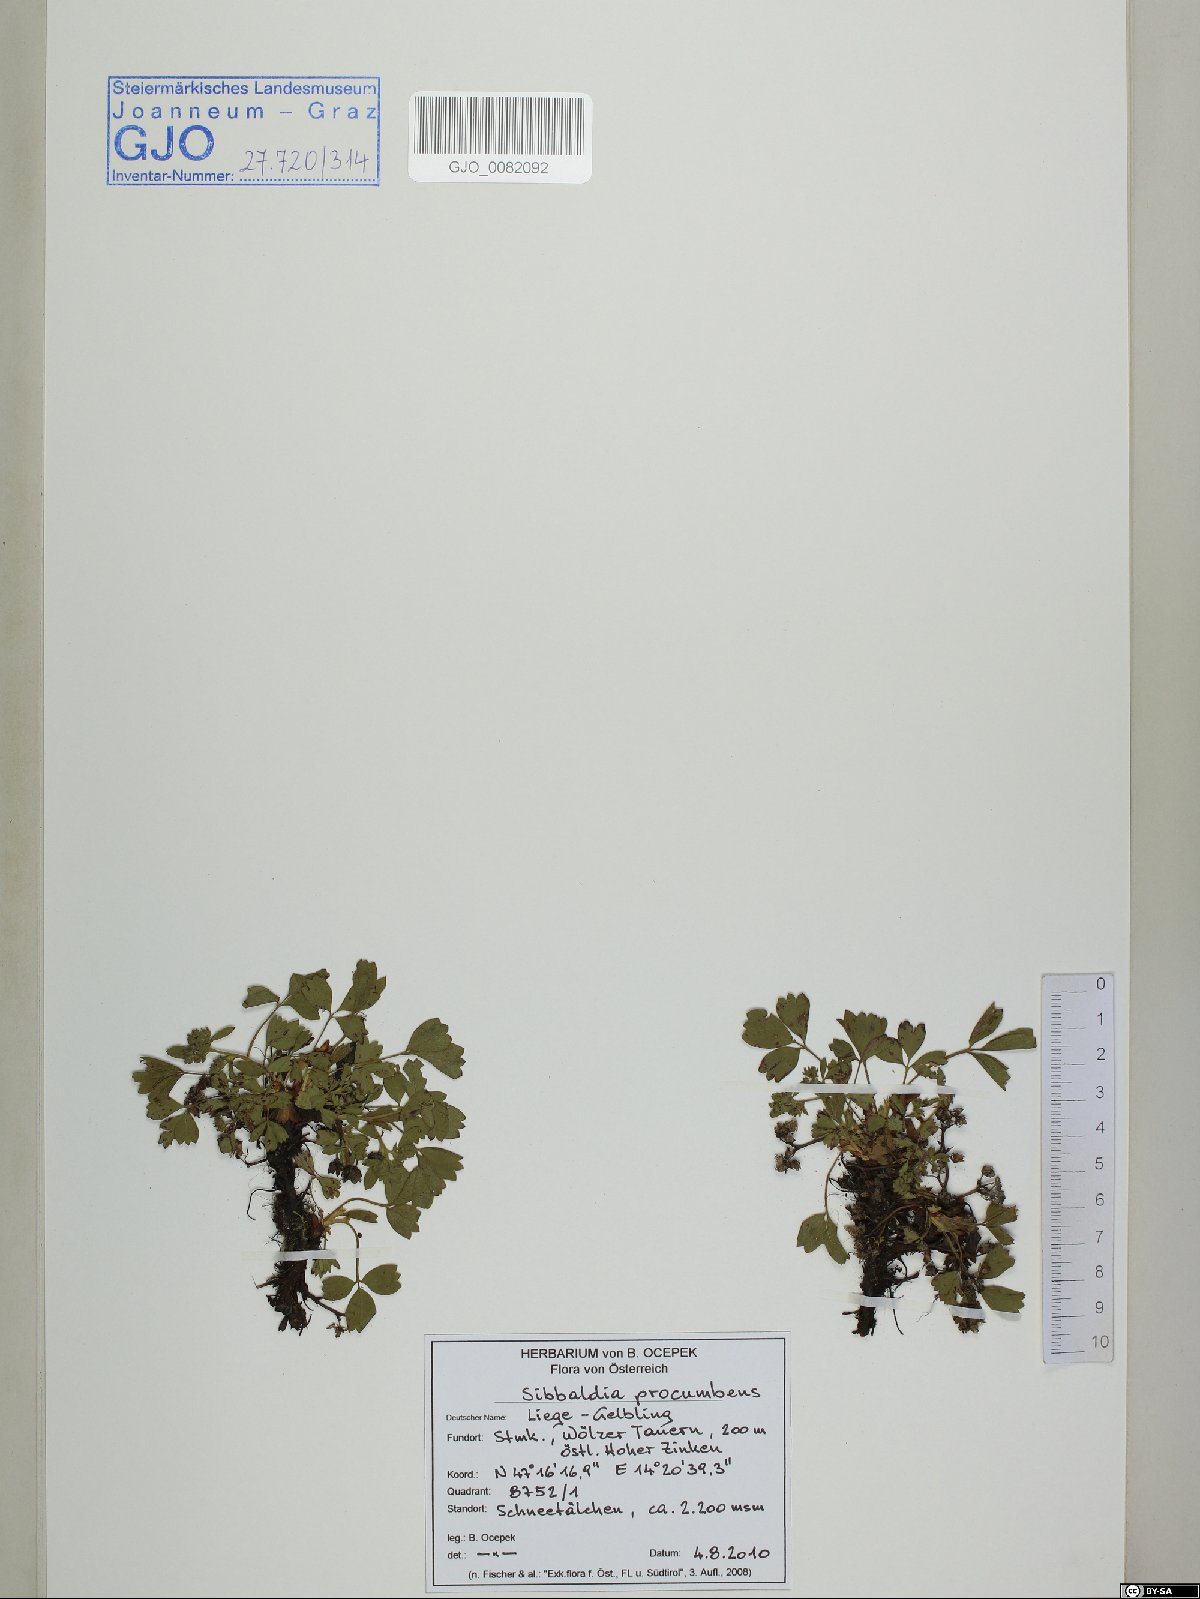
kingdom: Plantae
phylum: Tracheophyta
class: Magnoliopsida
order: Rosales
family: Rosaceae
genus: Sibbaldia
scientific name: Sibbaldia procumbens
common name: Creeping sibbaldia
